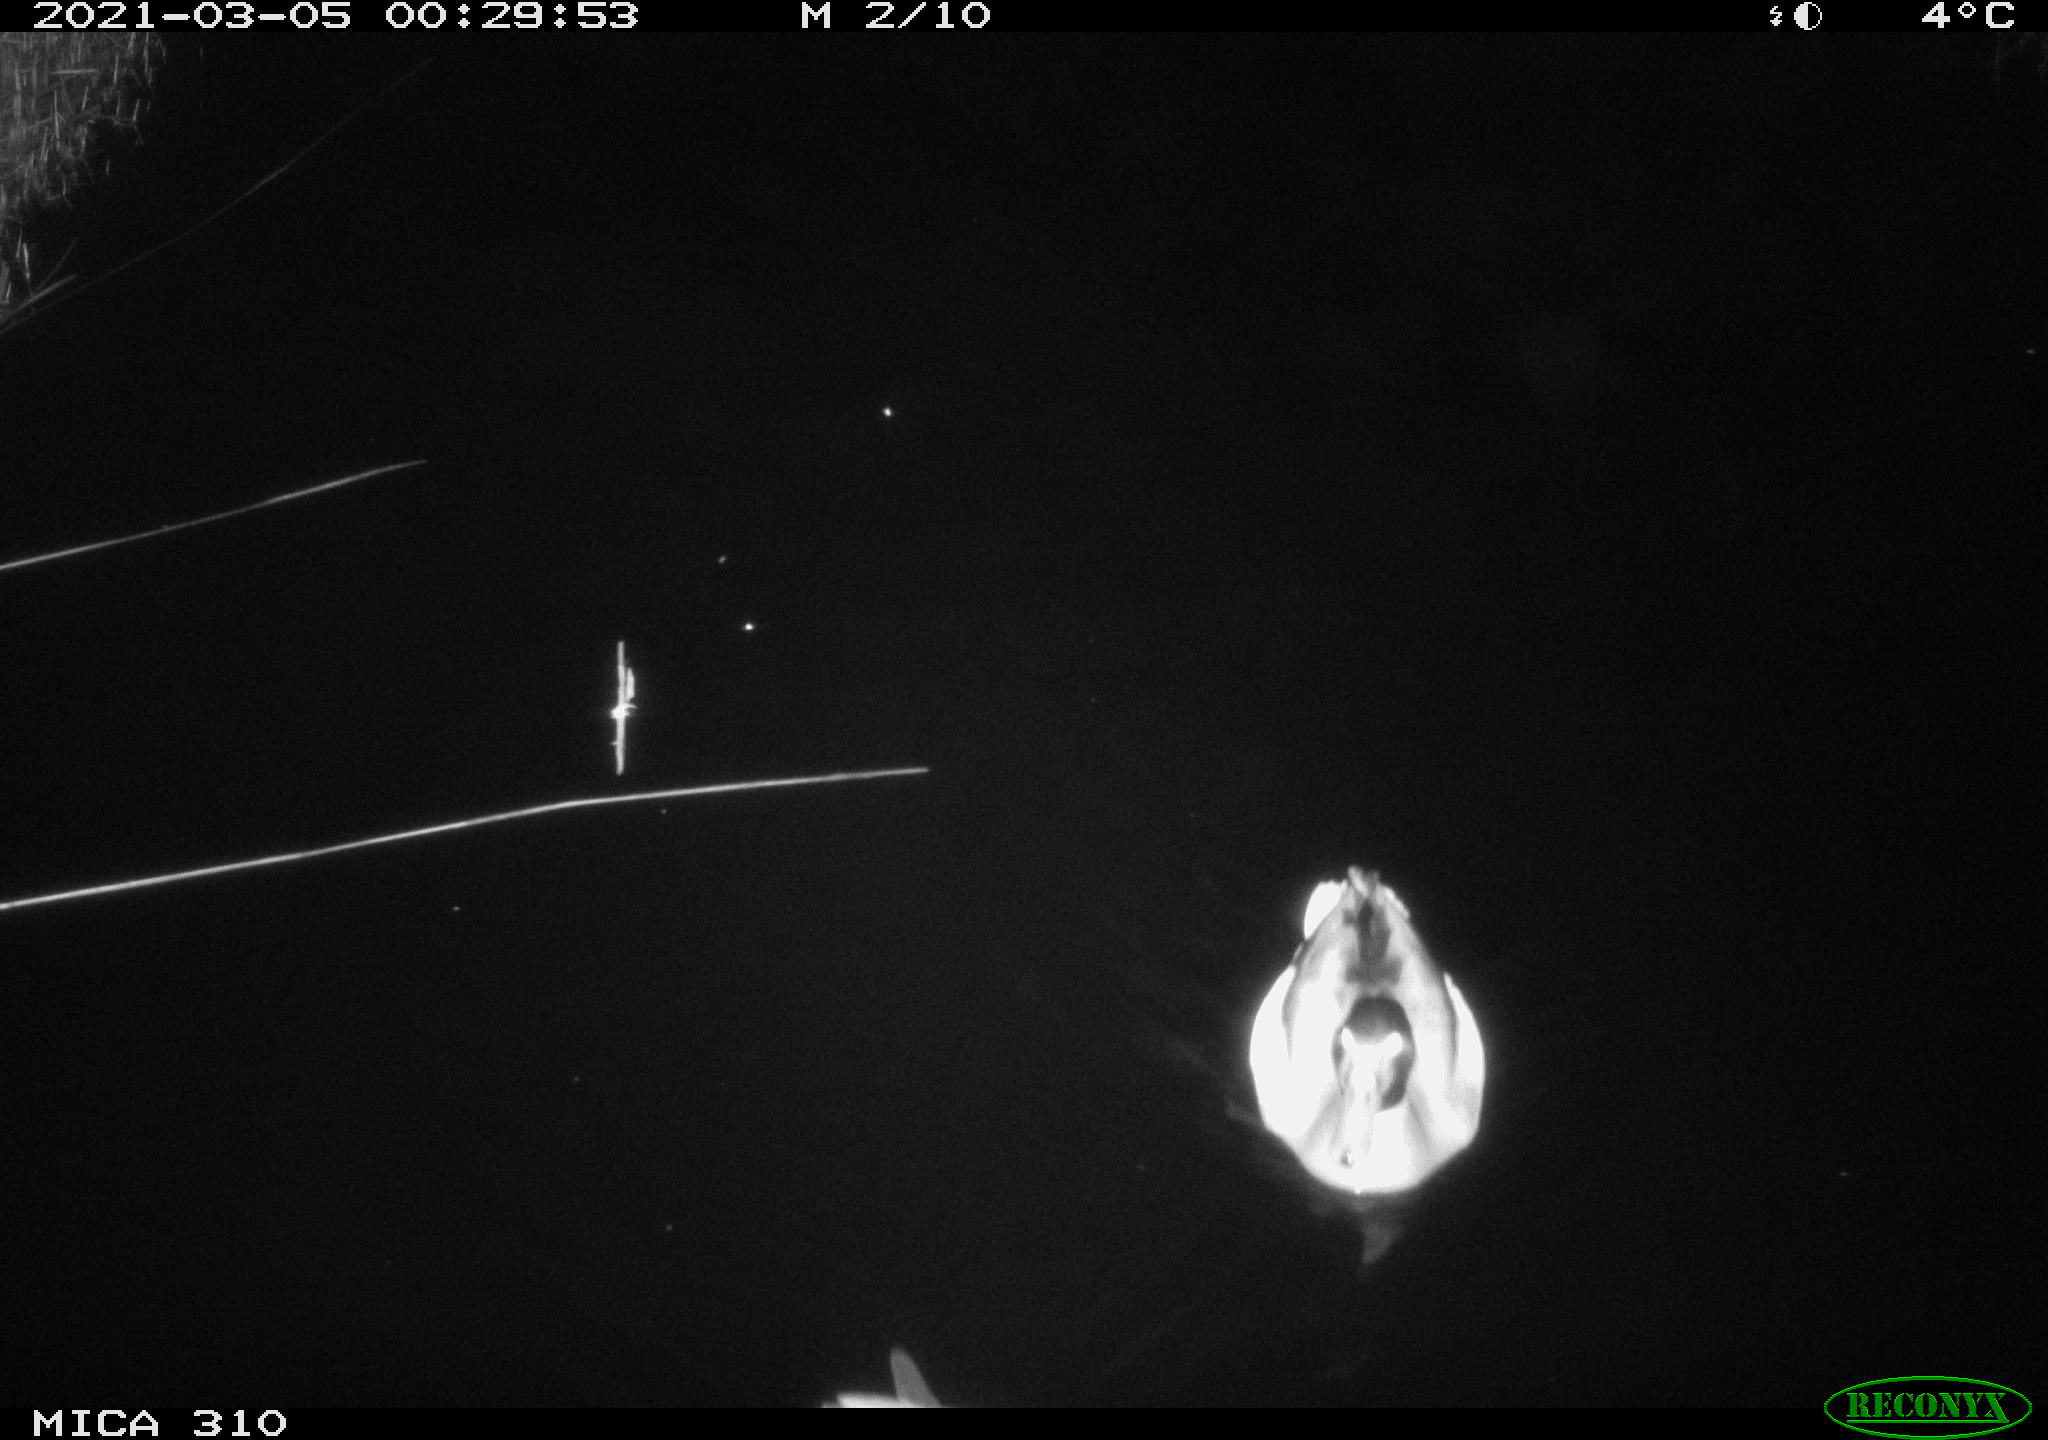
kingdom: Animalia
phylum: Chordata
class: Aves
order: Anseriformes
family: Anatidae
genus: Anas
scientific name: Anas platyrhynchos
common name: Mallard
